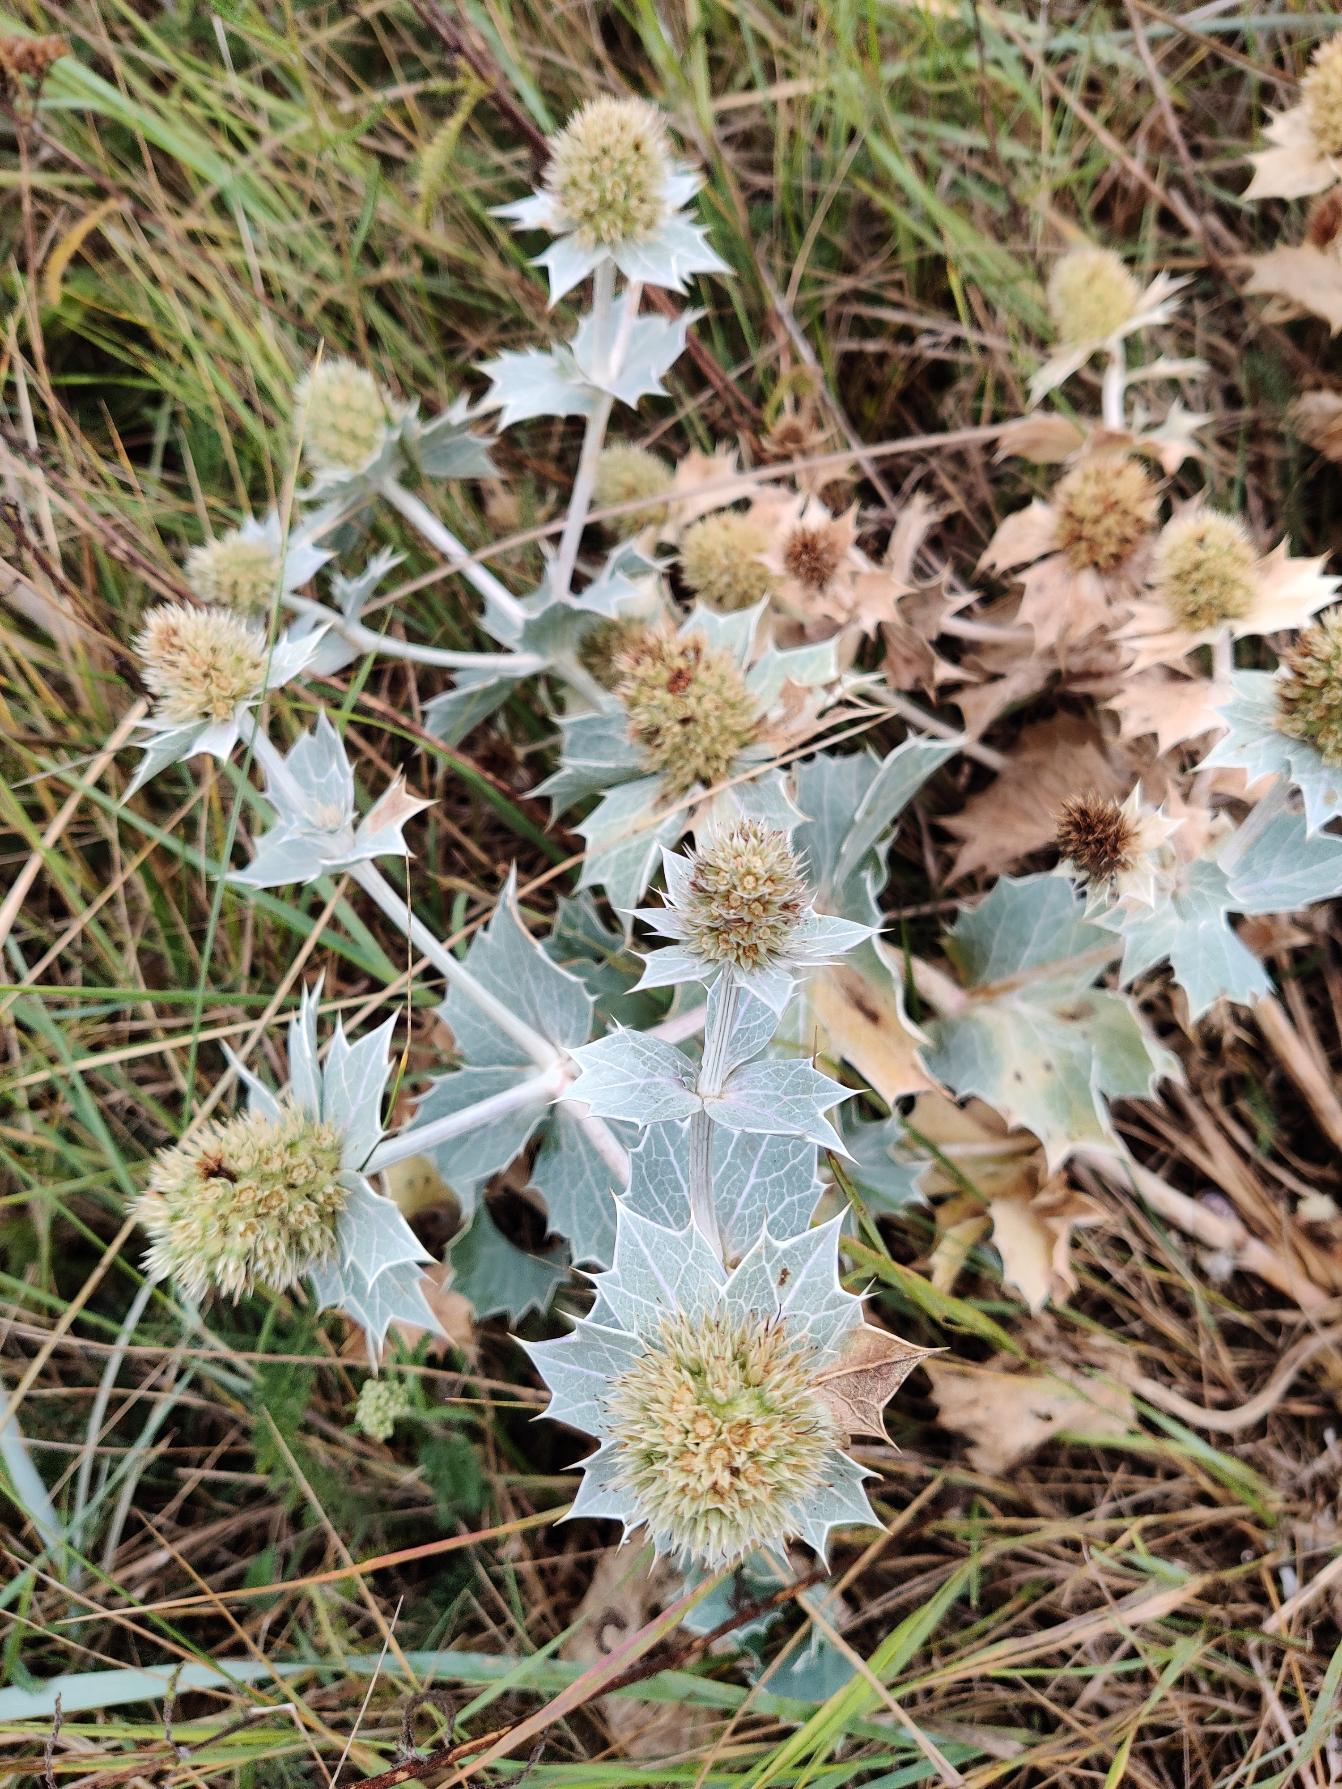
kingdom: Plantae
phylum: Tracheophyta
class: Magnoliopsida
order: Apiales
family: Apiaceae
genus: Eryngium
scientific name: Eryngium maritimum
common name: Strand-mandstro
